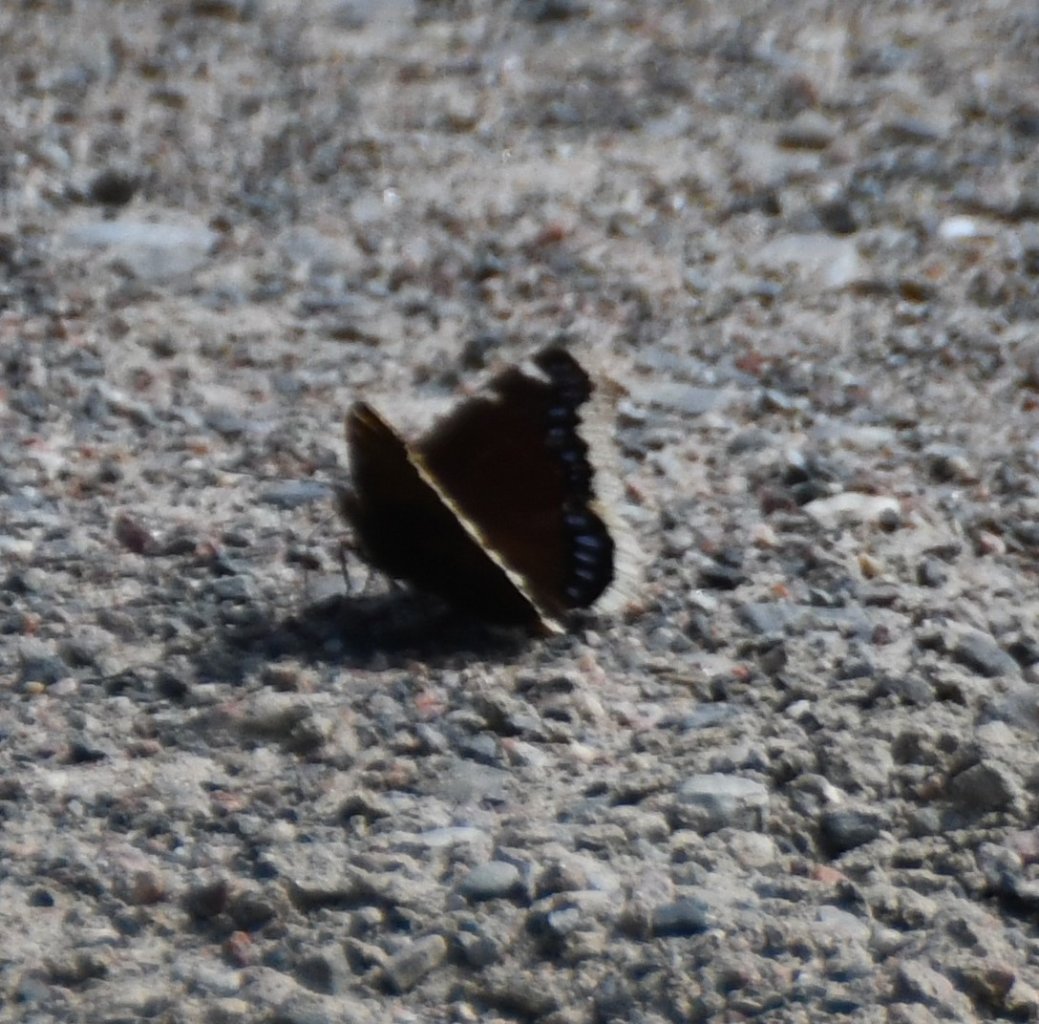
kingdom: Animalia
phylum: Arthropoda
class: Insecta
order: Lepidoptera
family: Nymphalidae
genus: Nymphalis
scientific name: Nymphalis antiopa
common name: Mourning Cloak
